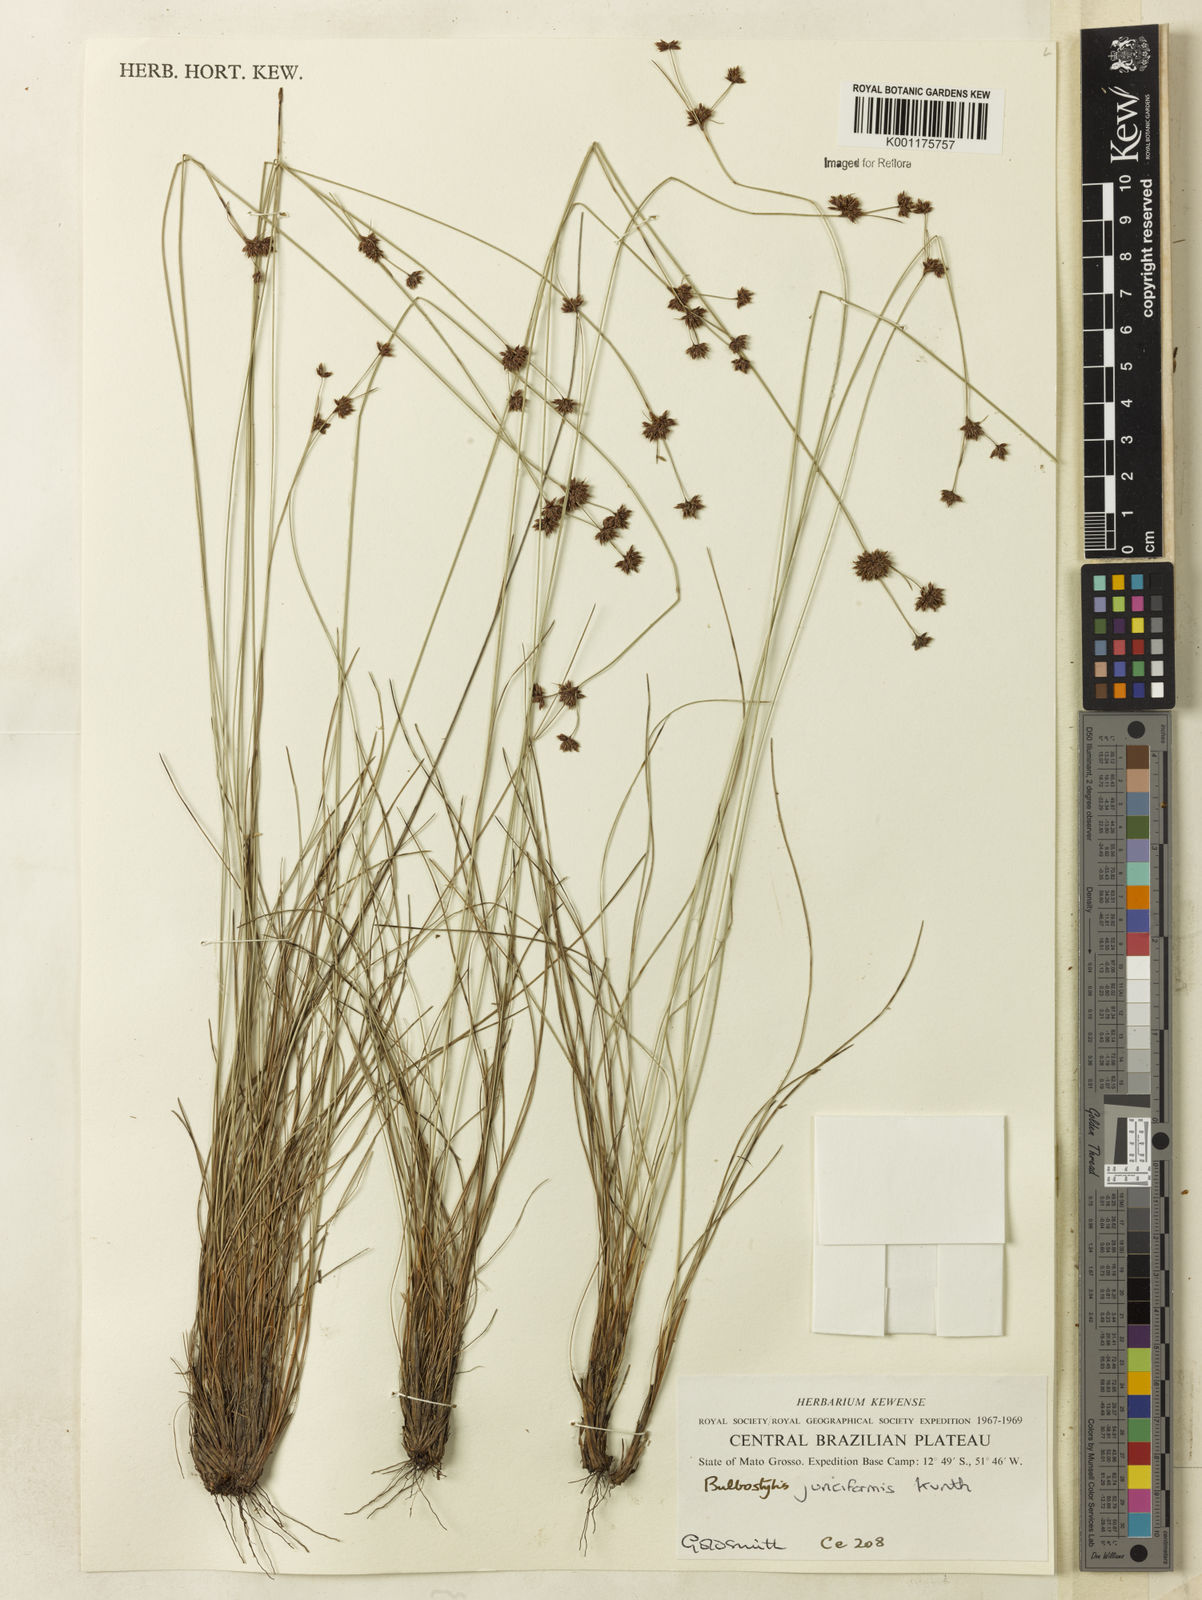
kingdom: Plantae
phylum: Tracheophyta
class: Liliopsida
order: Poales
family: Cyperaceae
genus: Bulbostylis
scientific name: Bulbostylis junciformis
